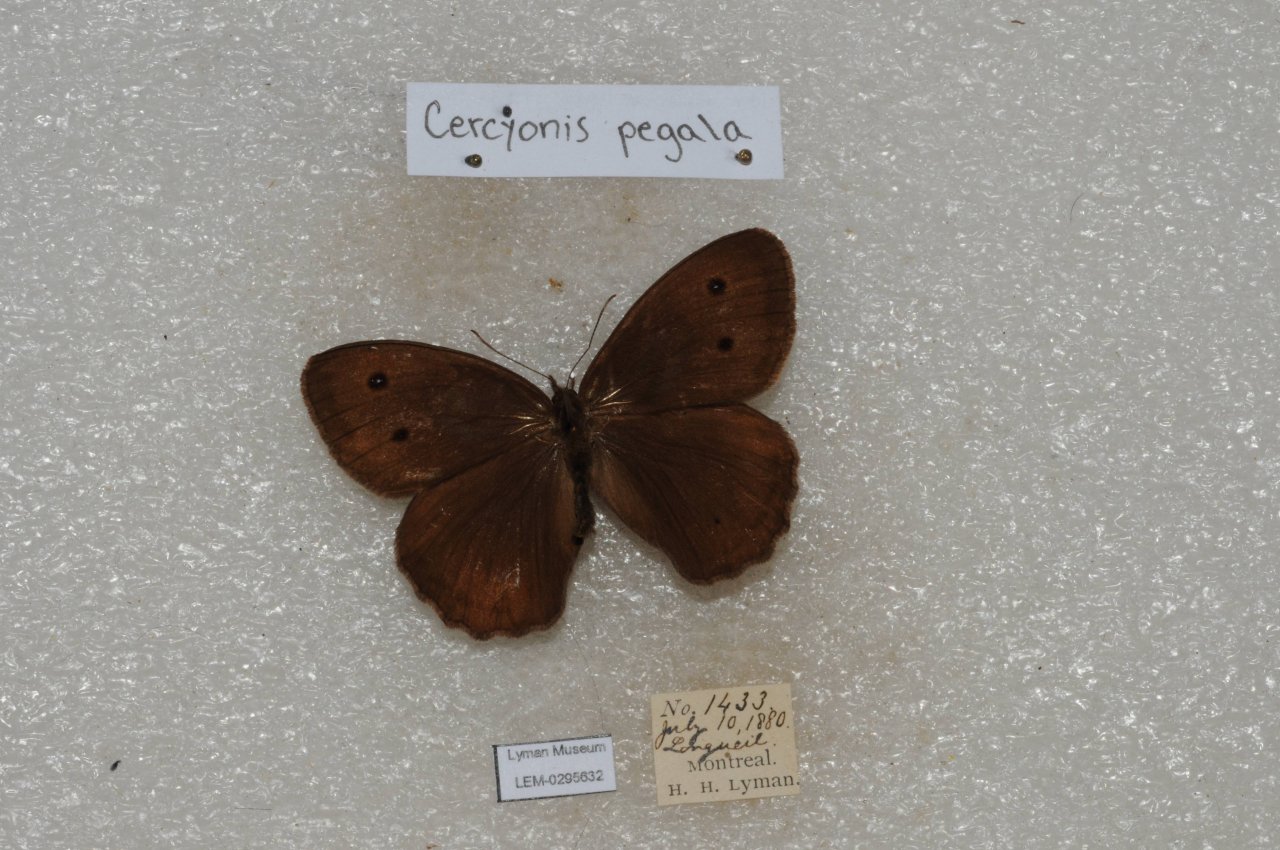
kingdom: Animalia
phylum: Arthropoda
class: Insecta
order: Lepidoptera
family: Nymphalidae
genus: Cercyonis
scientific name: Cercyonis pegala
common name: Common Wood-Nymph
